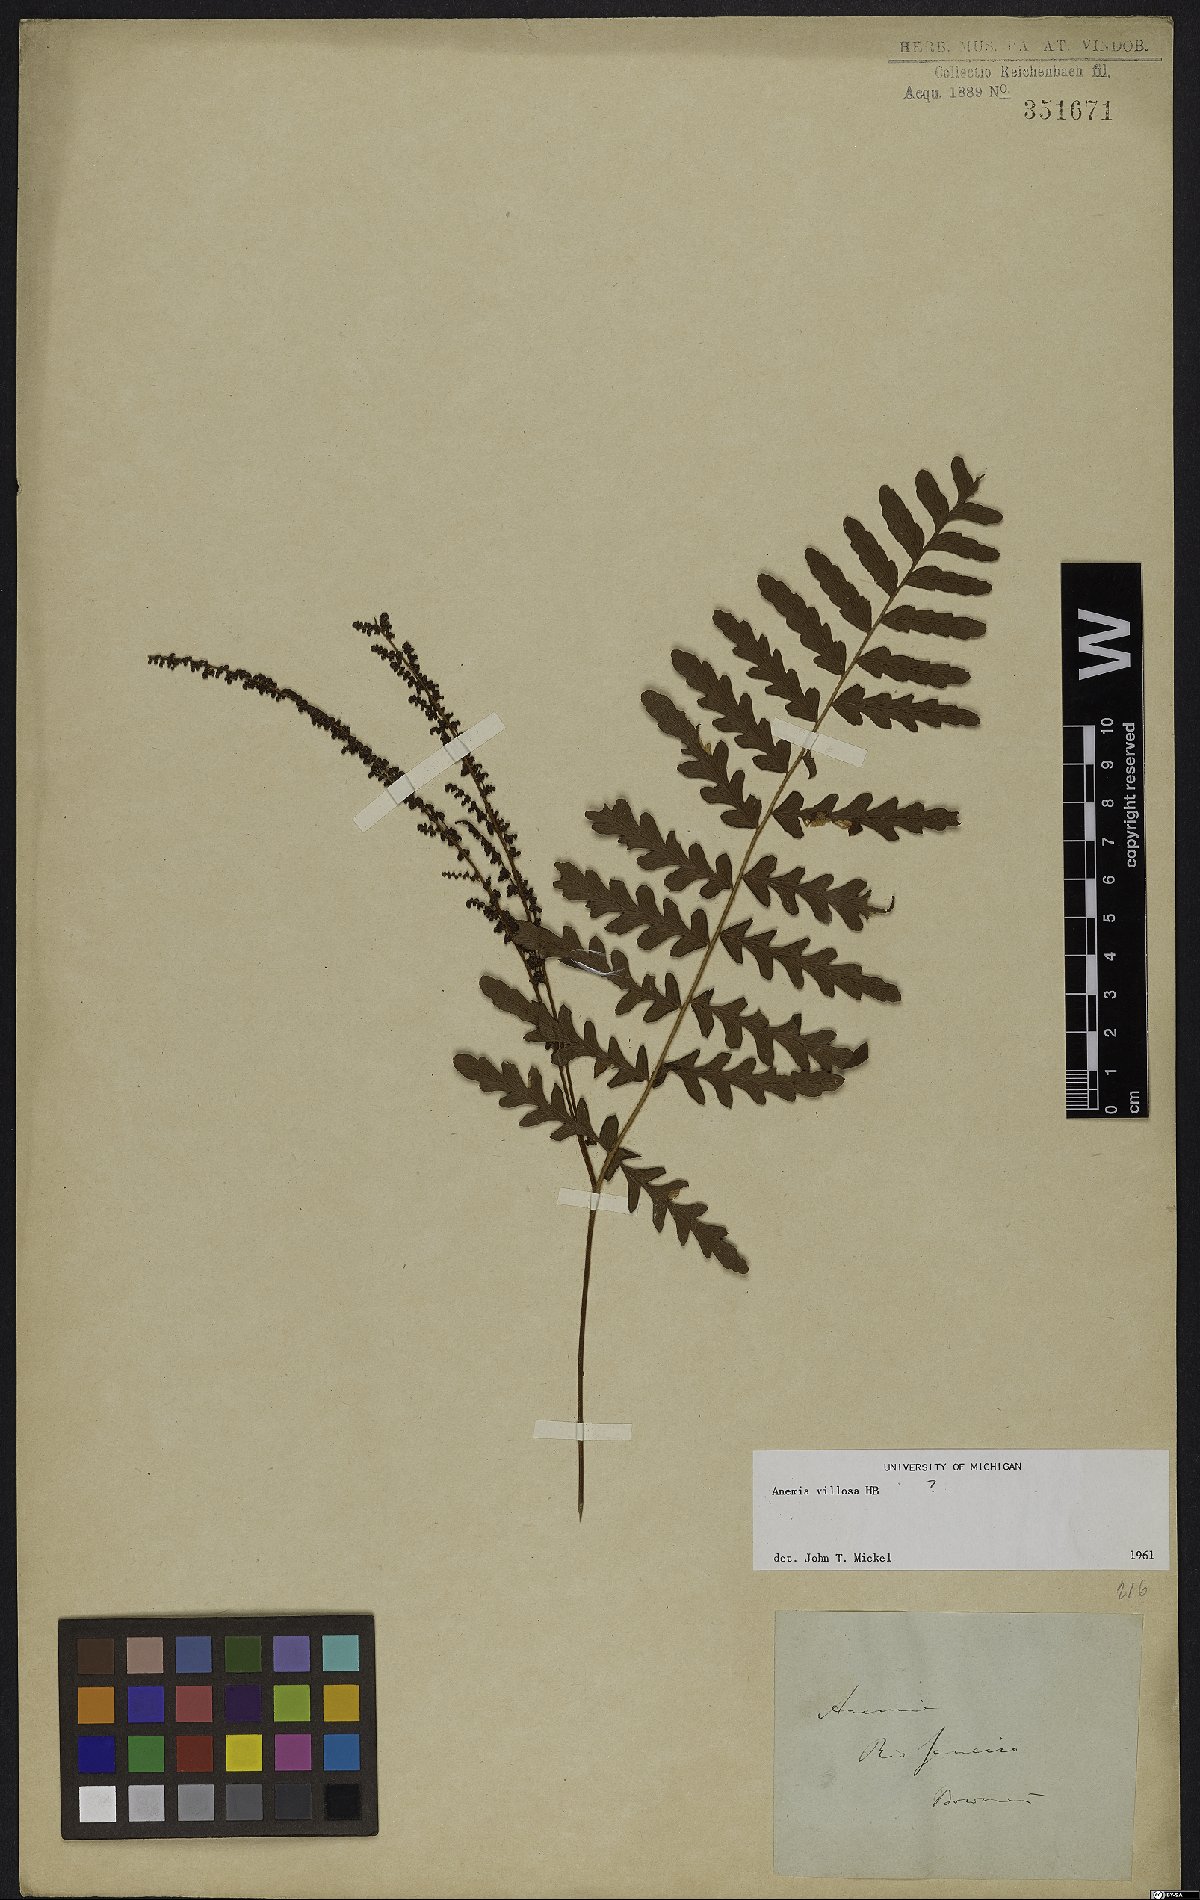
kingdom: Plantae
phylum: Tracheophyta
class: Polypodiopsida
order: Schizaeales
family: Anemiaceae
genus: Anemia
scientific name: Anemia villosa
